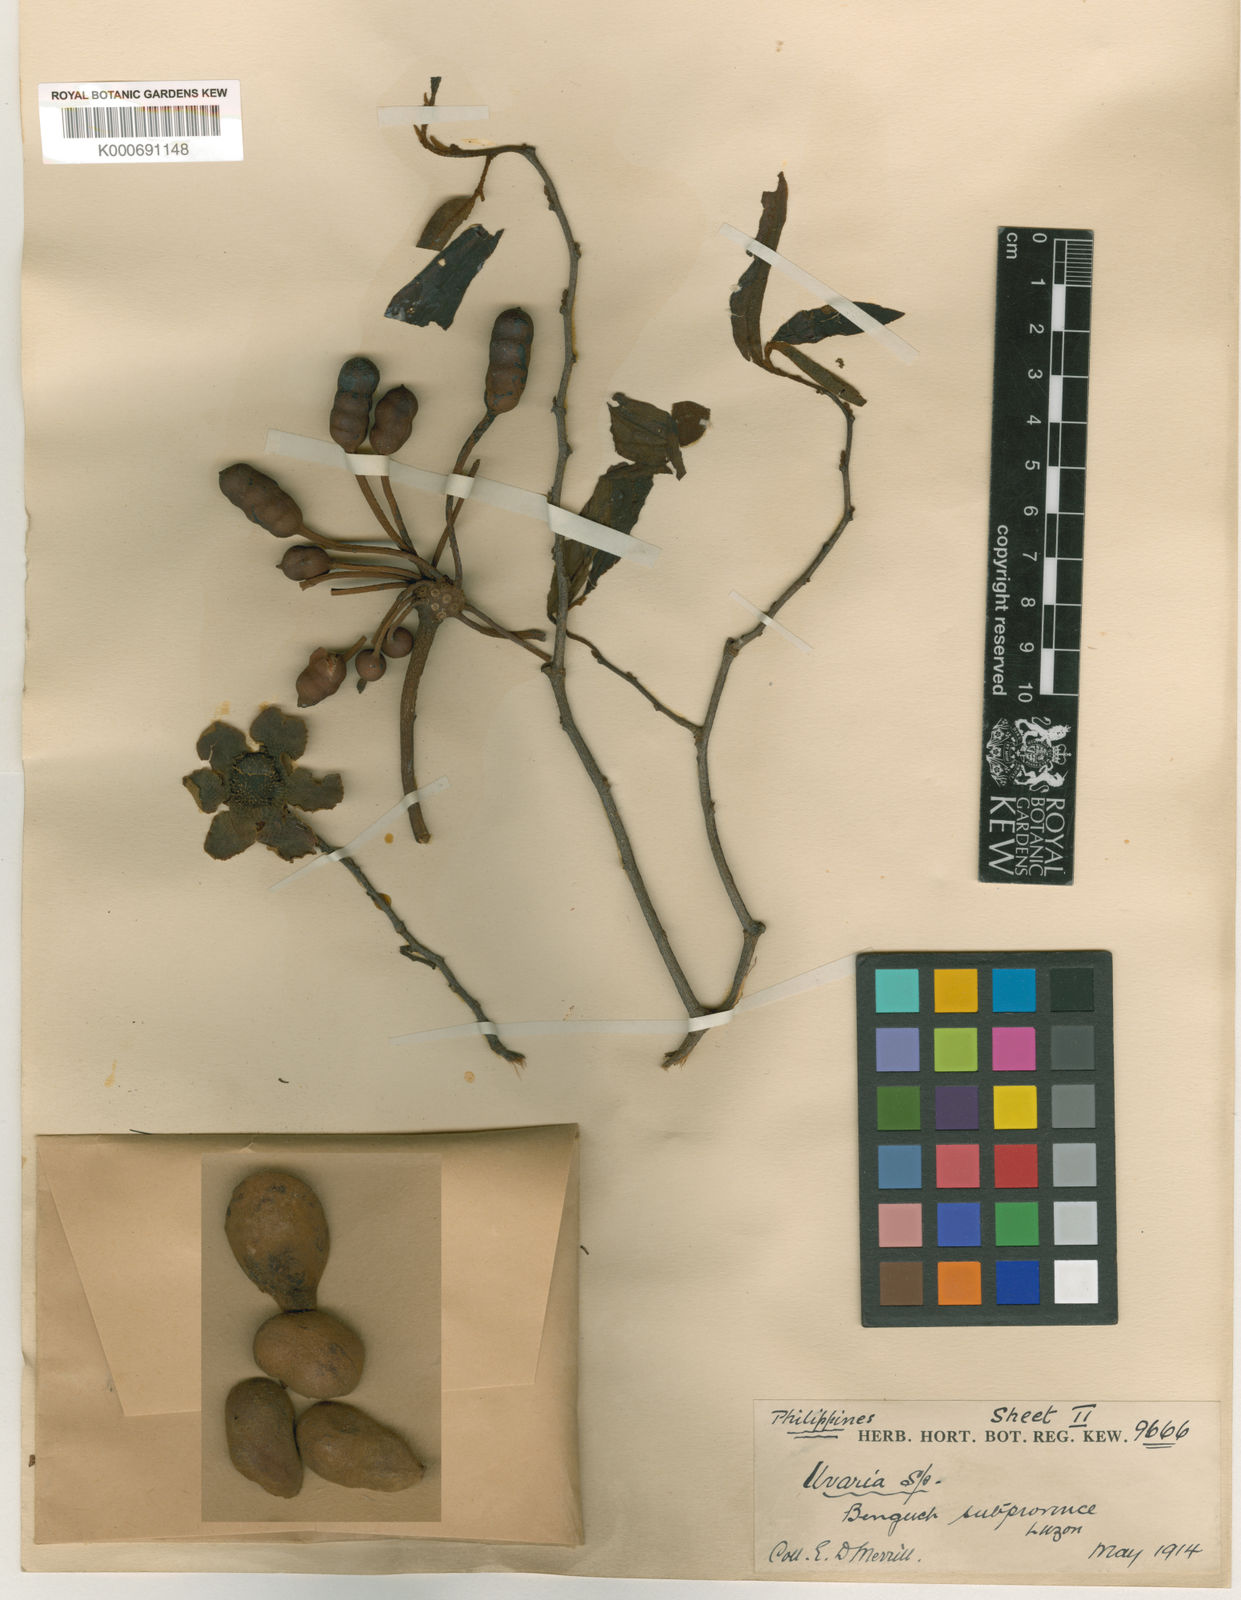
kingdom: Plantae
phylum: Tracheophyta
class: Magnoliopsida
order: Magnoliales
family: Annonaceae
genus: Uvaria
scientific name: Uvaria stellata
